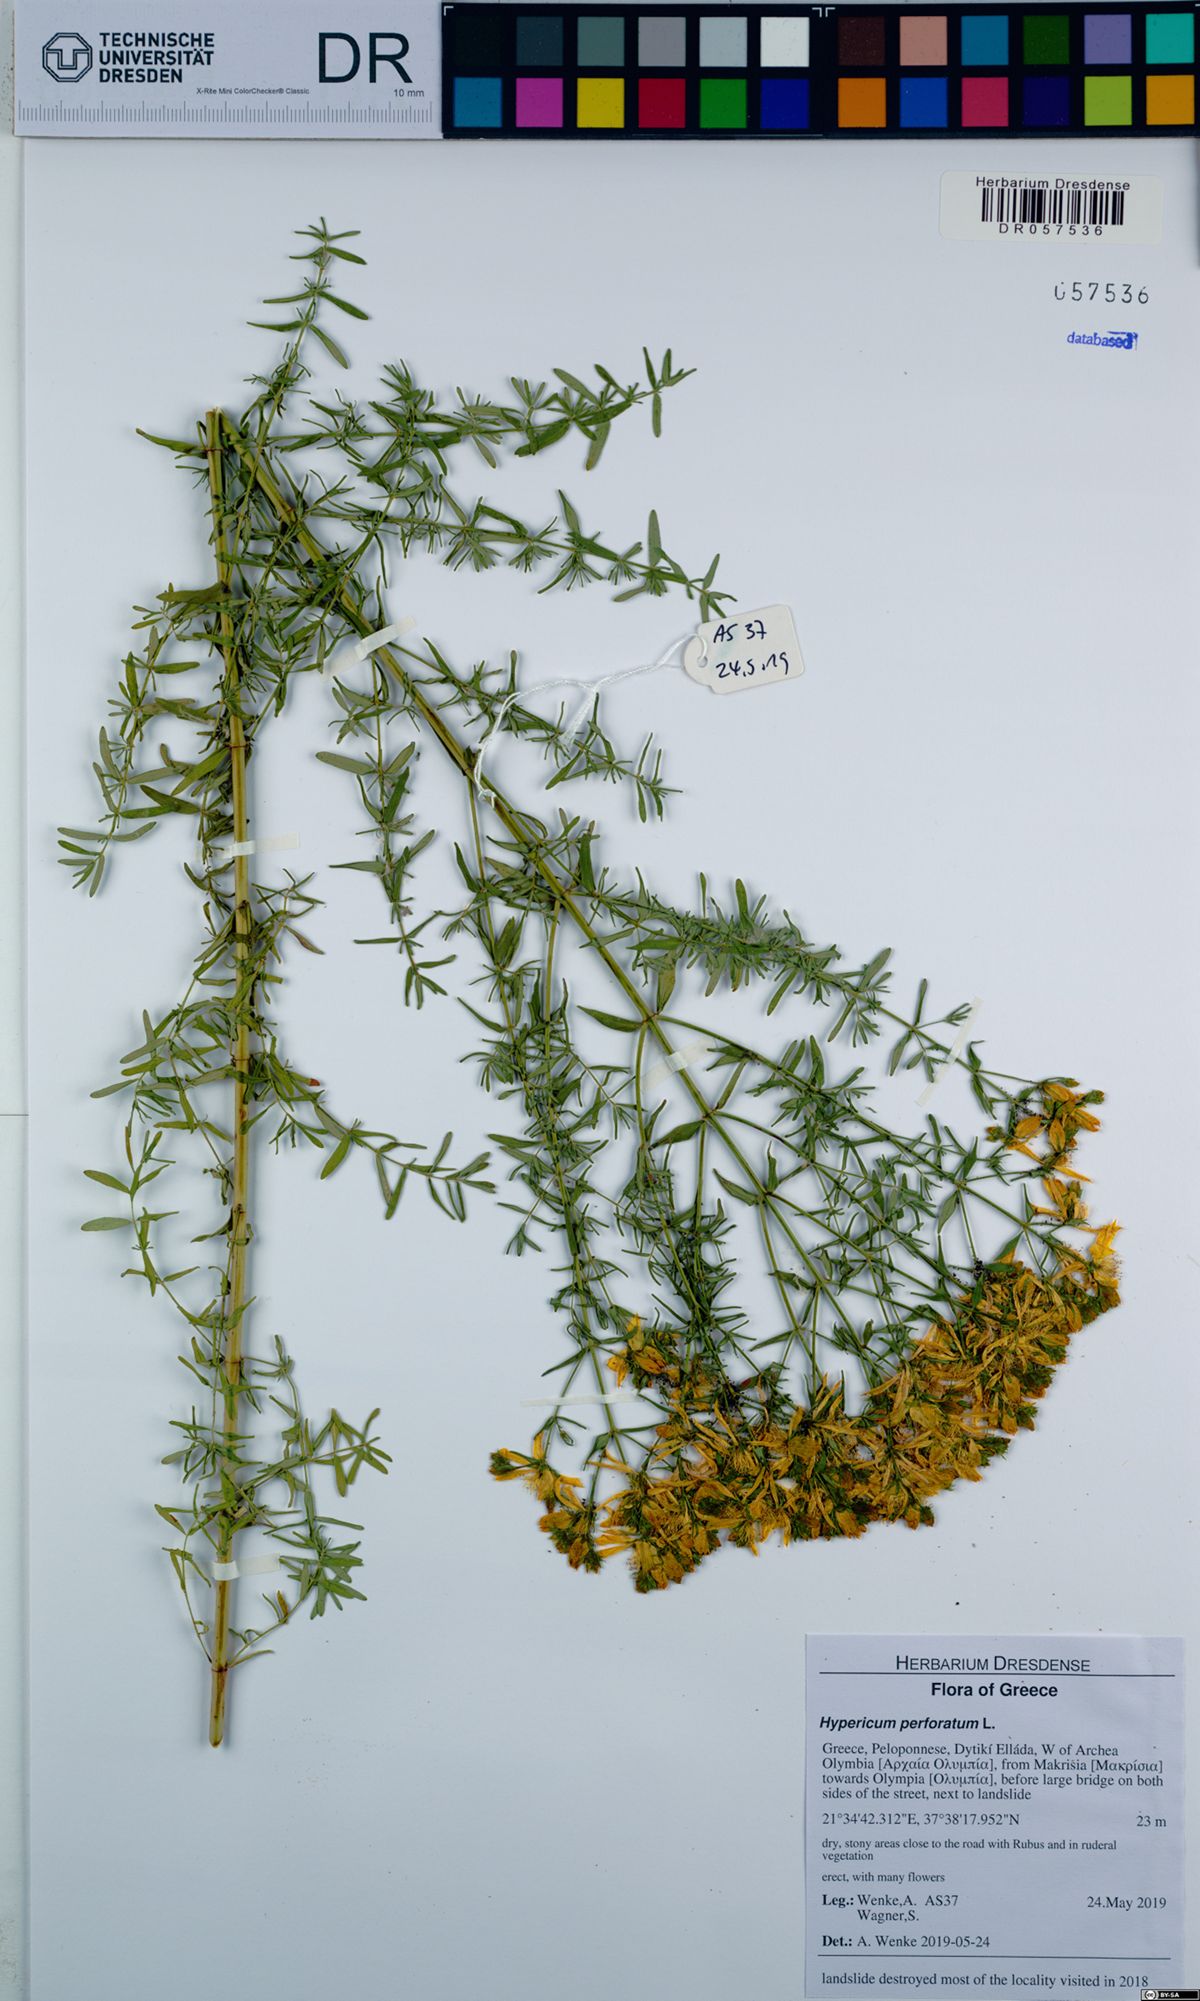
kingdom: Plantae
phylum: Tracheophyta
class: Magnoliopsida
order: Malpighiales
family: Hypericaceae
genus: Hypericum
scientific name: Hypericum perforatum
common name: Common st. johnswort
